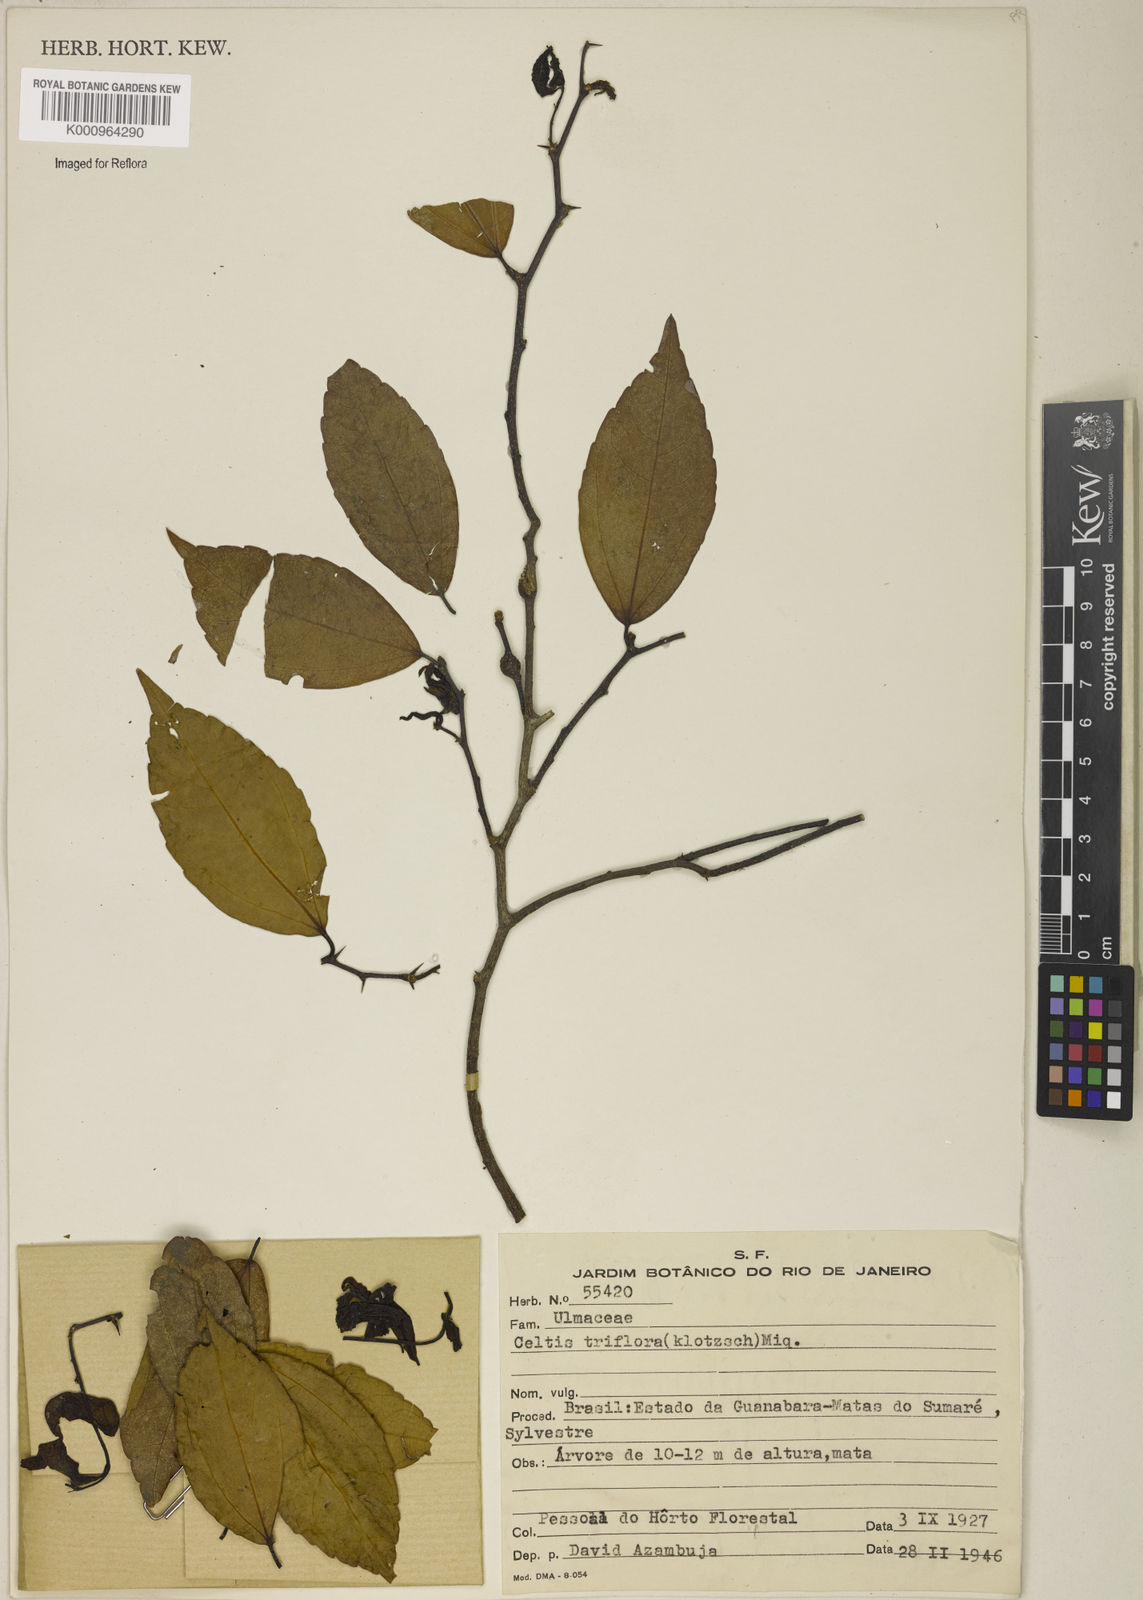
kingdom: Plantae
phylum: Tracheophyta
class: Magnoliopsida
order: Rosales
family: Cannabaceae
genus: Celtis
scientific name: Celtis iguanaea
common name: Iguana hackberry
